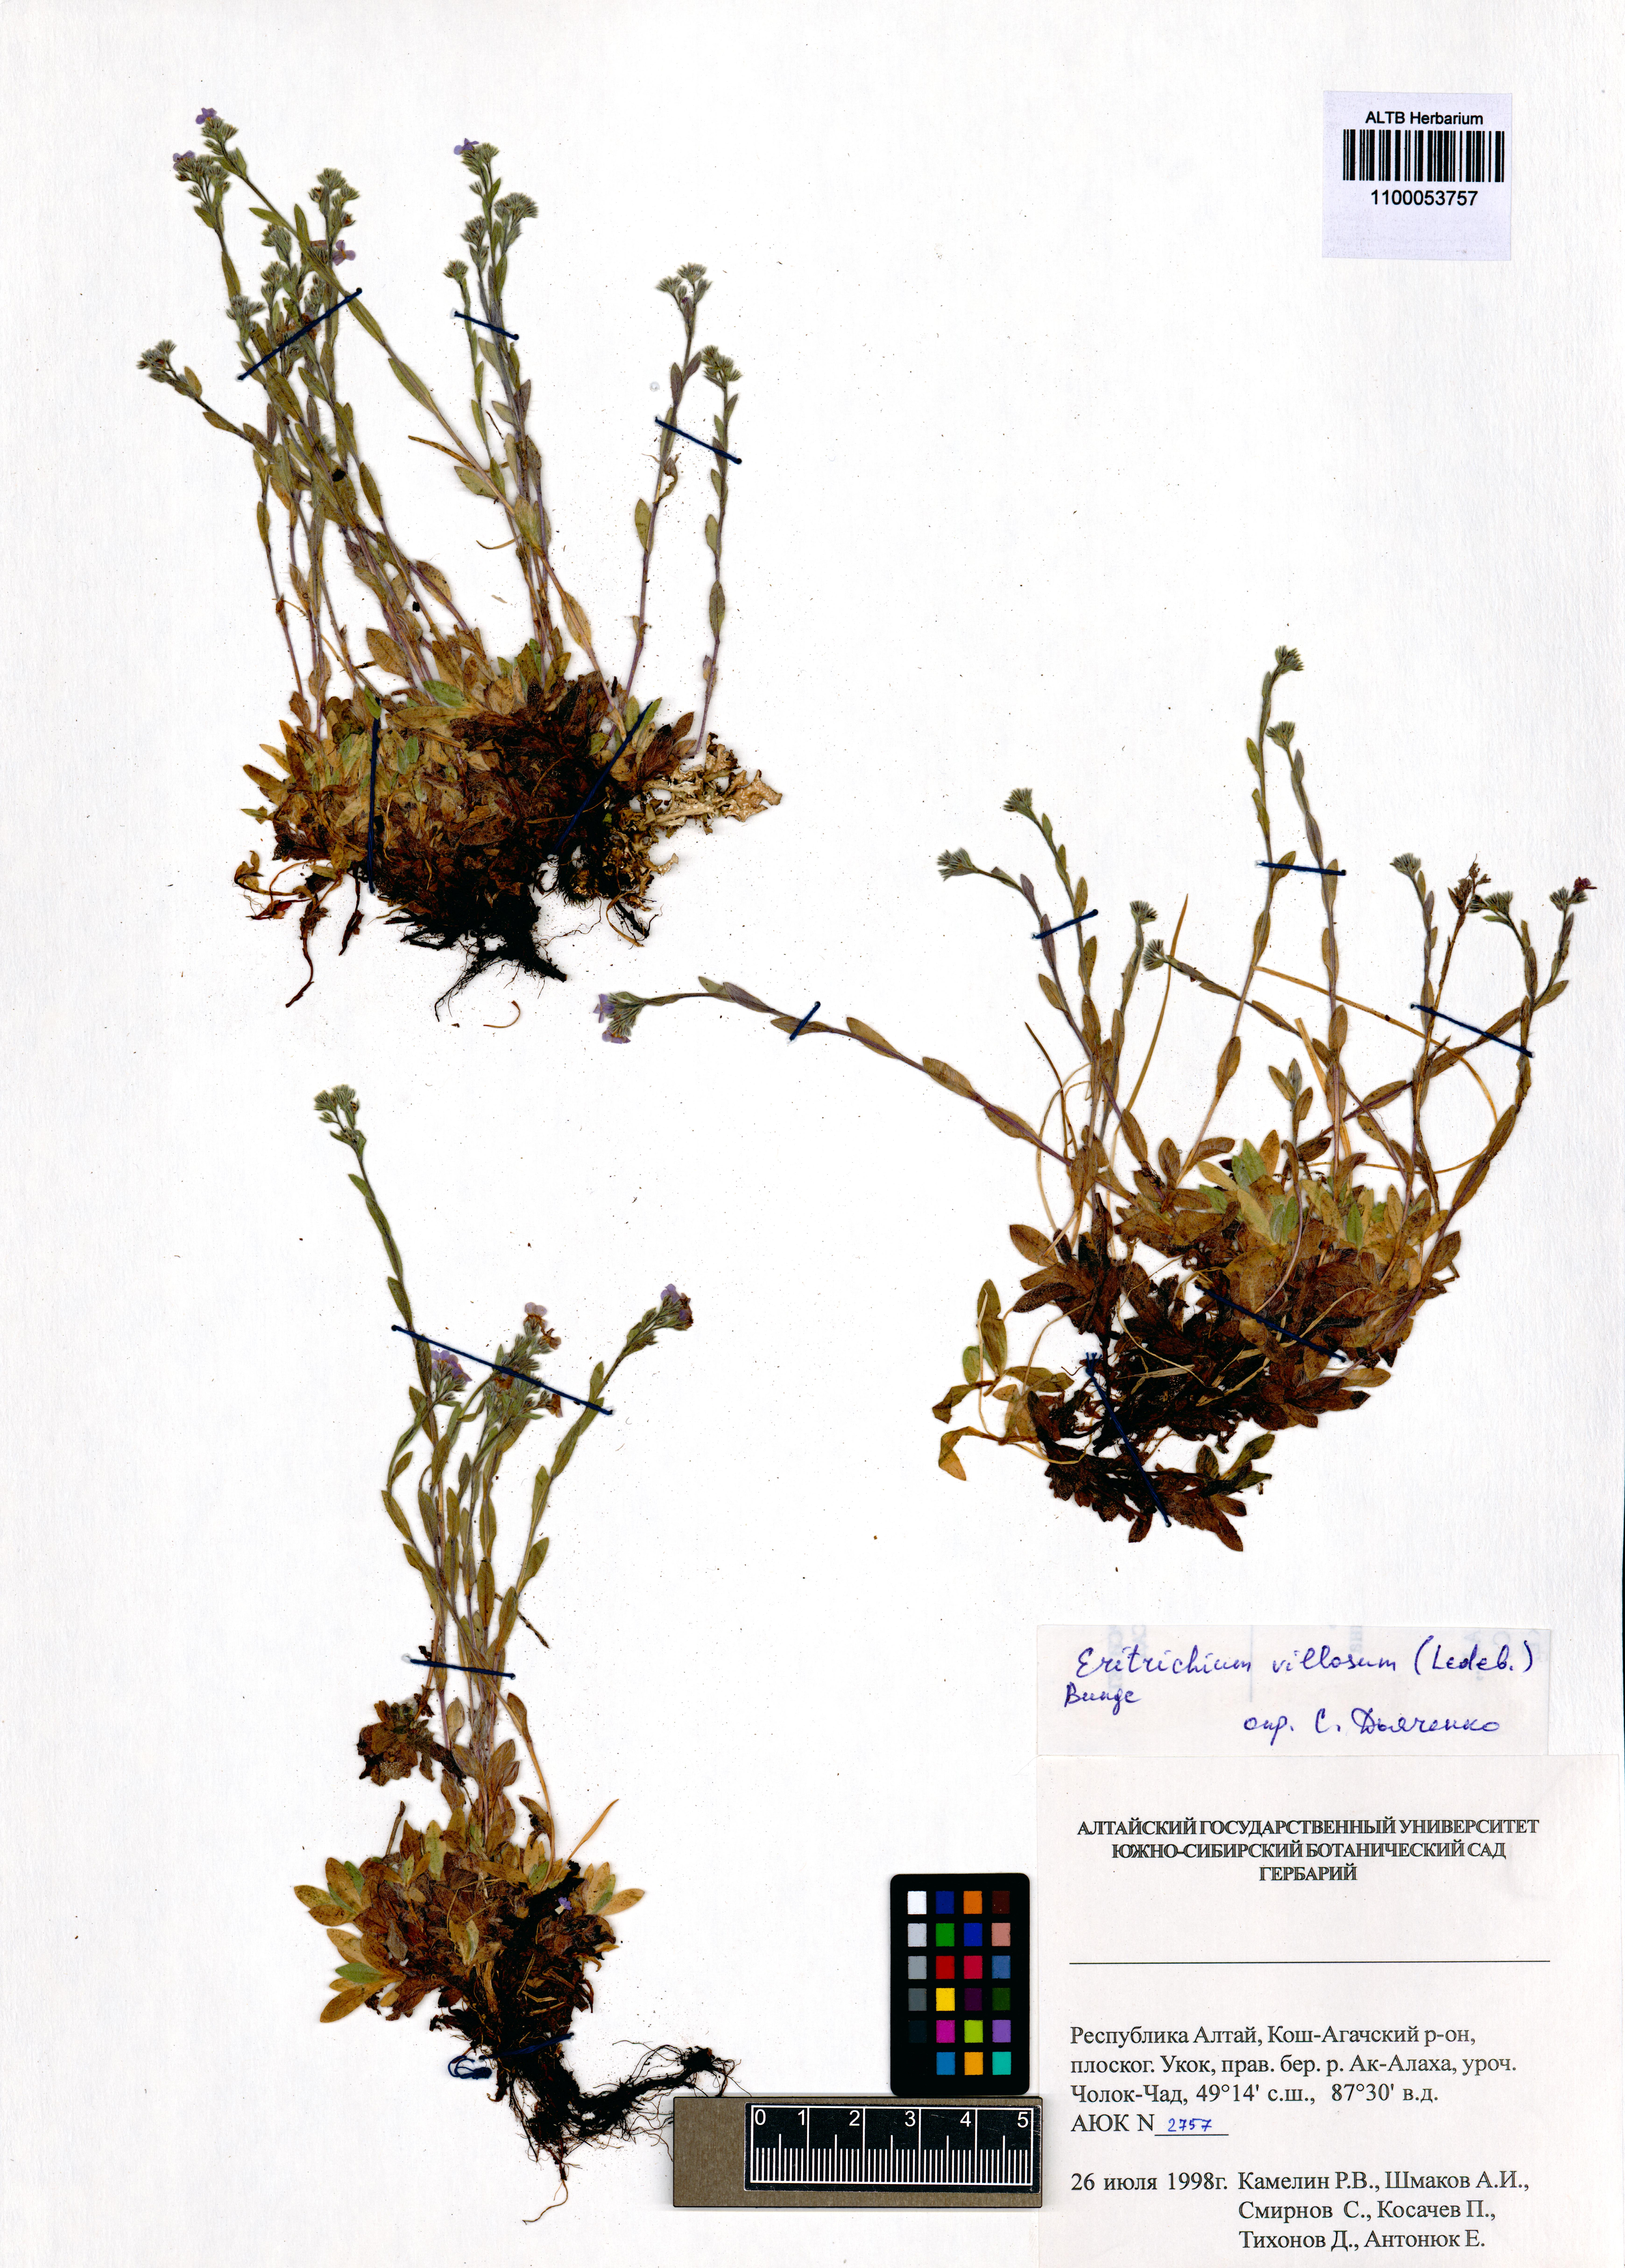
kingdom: Plantae
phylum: Tracheophyta
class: Magnoliopsida
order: Boraginales
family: Boraginaceae
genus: Eritrichium
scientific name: Eritrichium villosum
